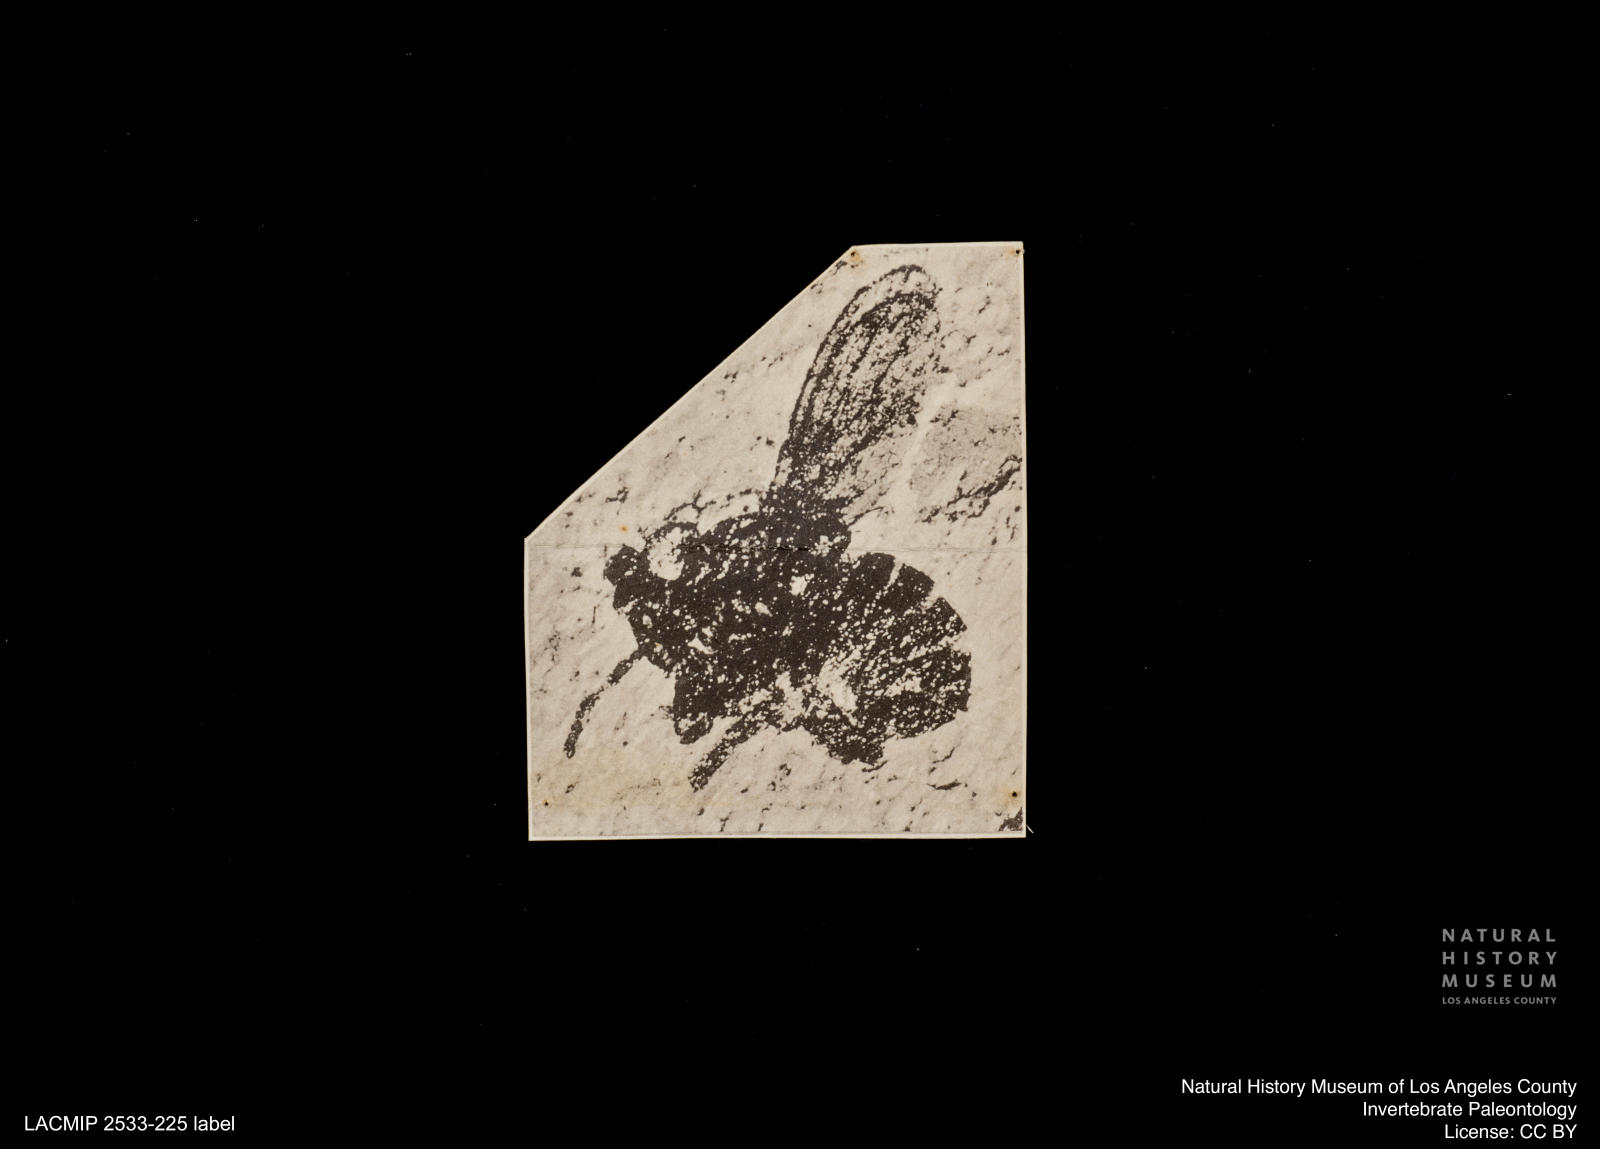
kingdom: Animalia
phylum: Arthropoda
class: Insecta
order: Diptera
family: Anthomyzidae
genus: Anthomyza
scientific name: Anthomyza
